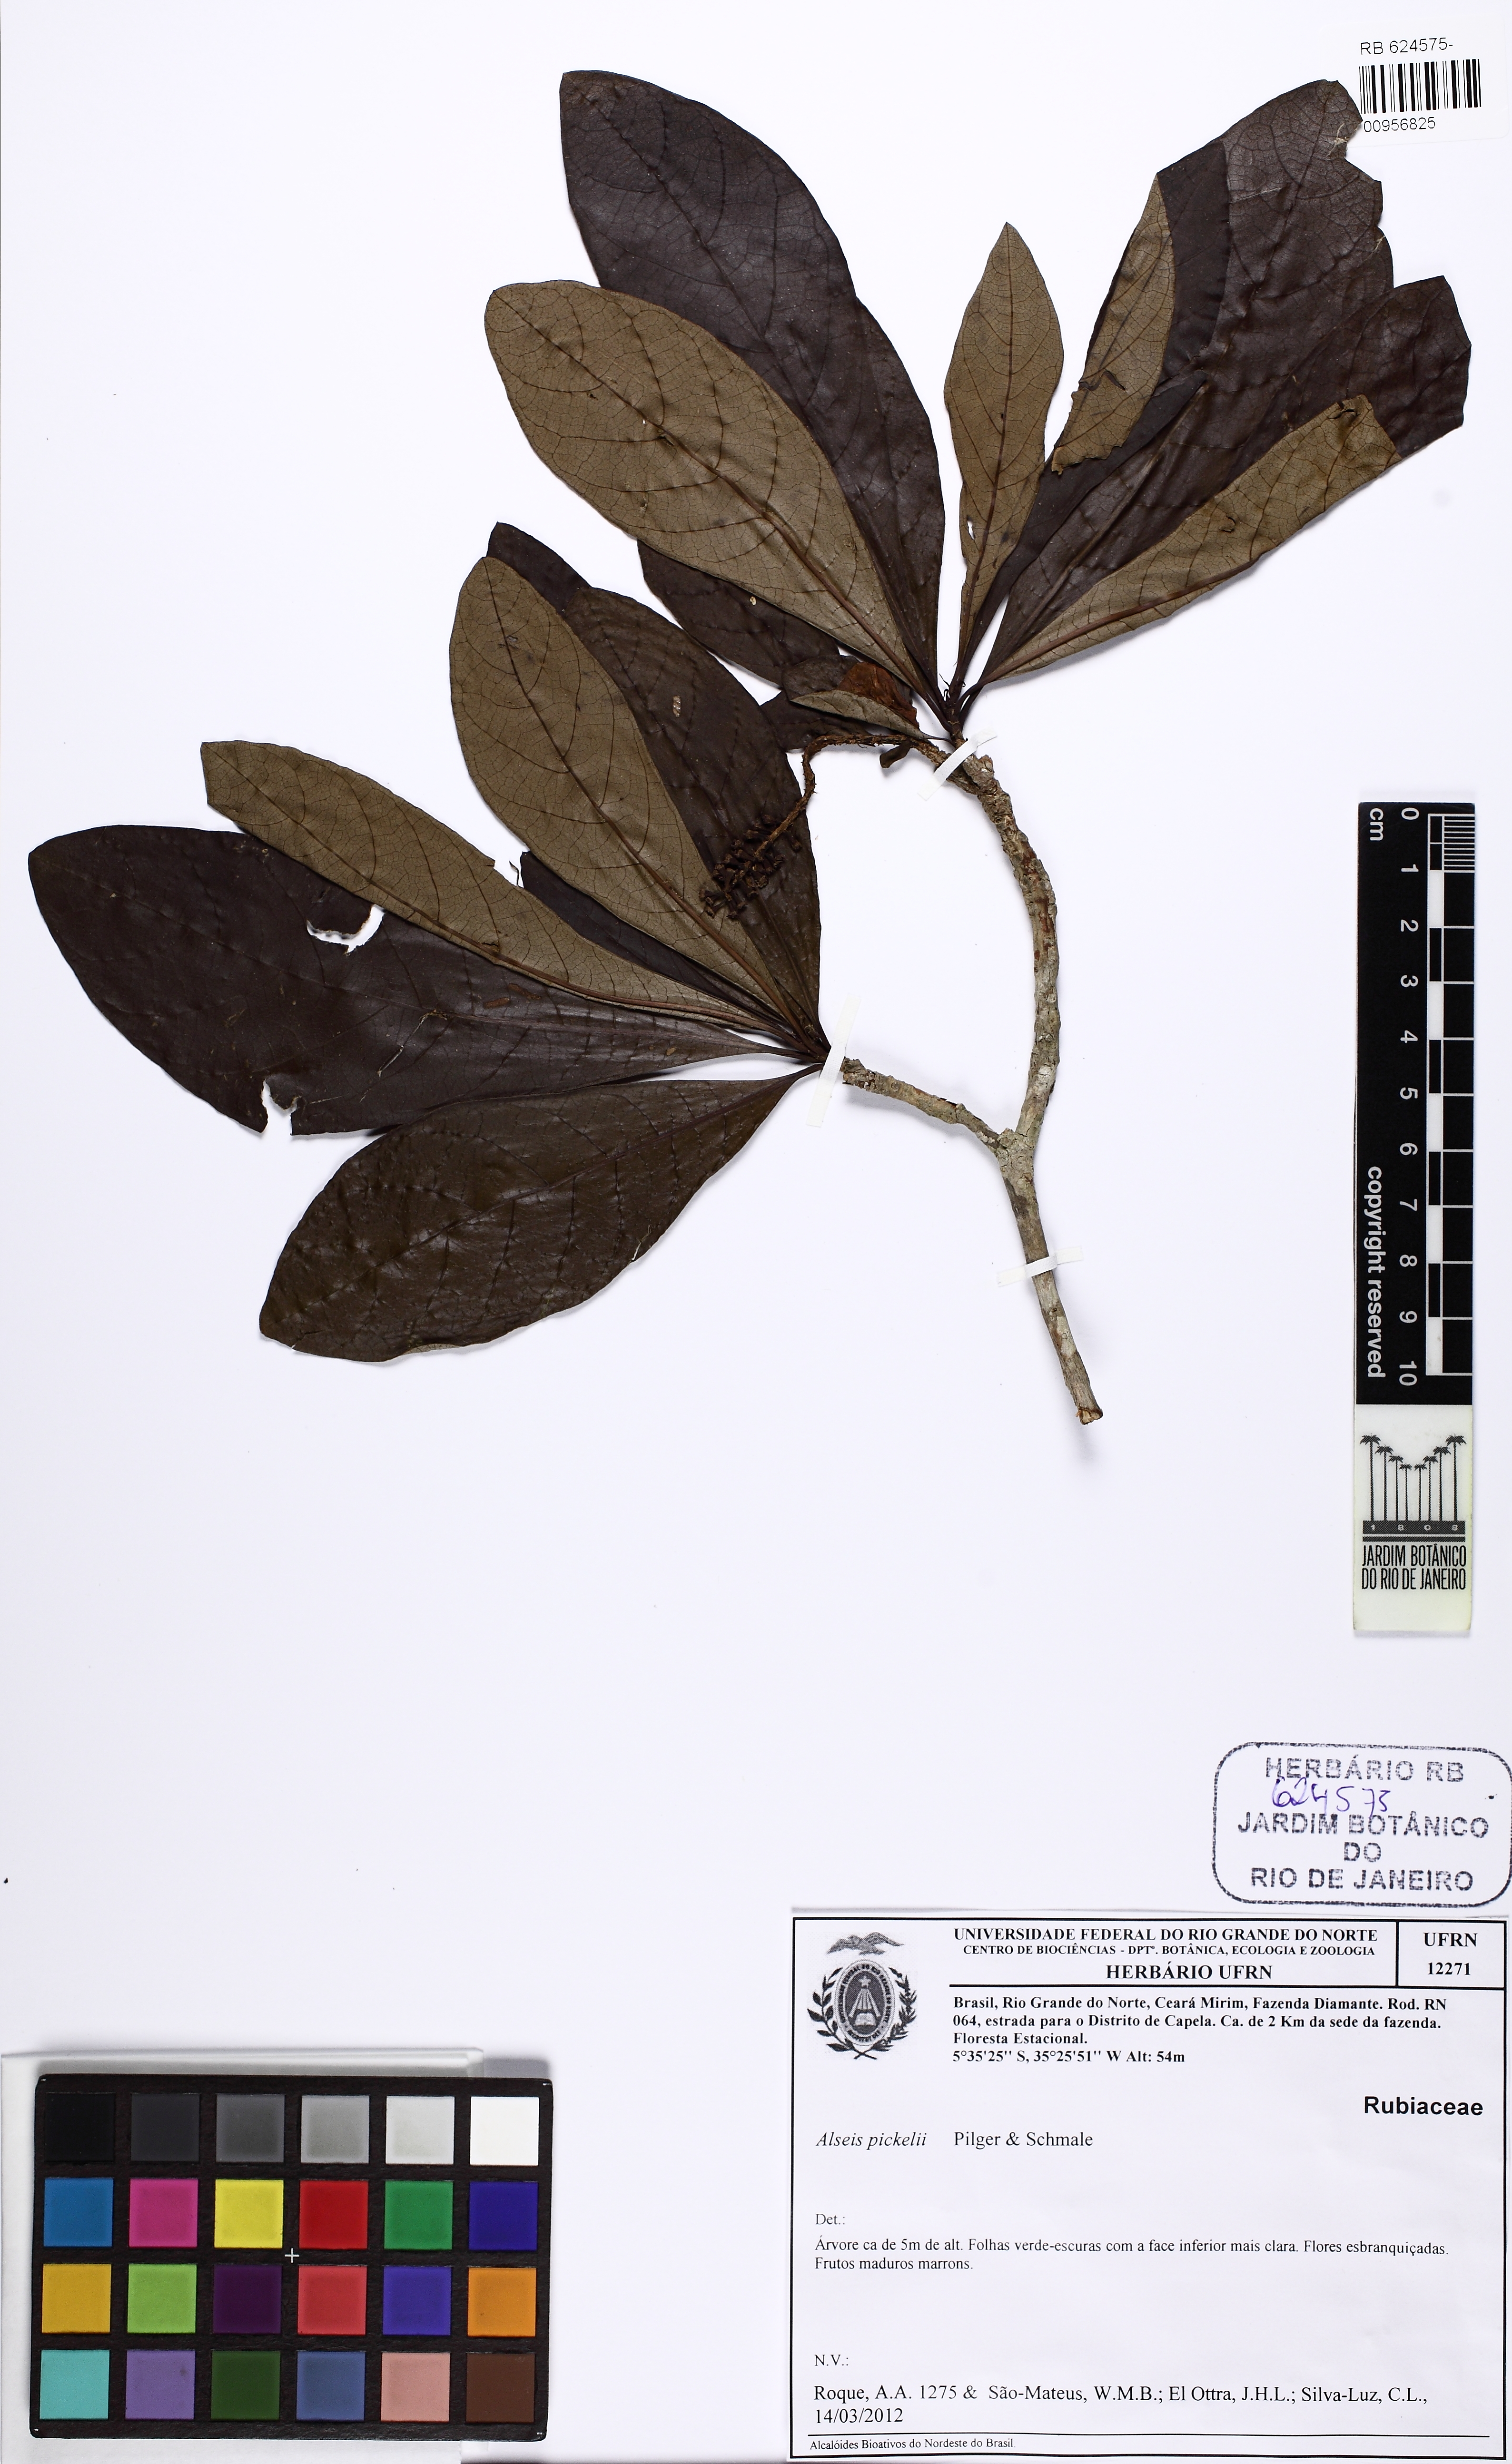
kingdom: Plantae
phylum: Tracheophyta
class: Magnoliopsida
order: Gentianales
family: Rubiaceae
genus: Alseis
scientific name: Alseis pickelii
